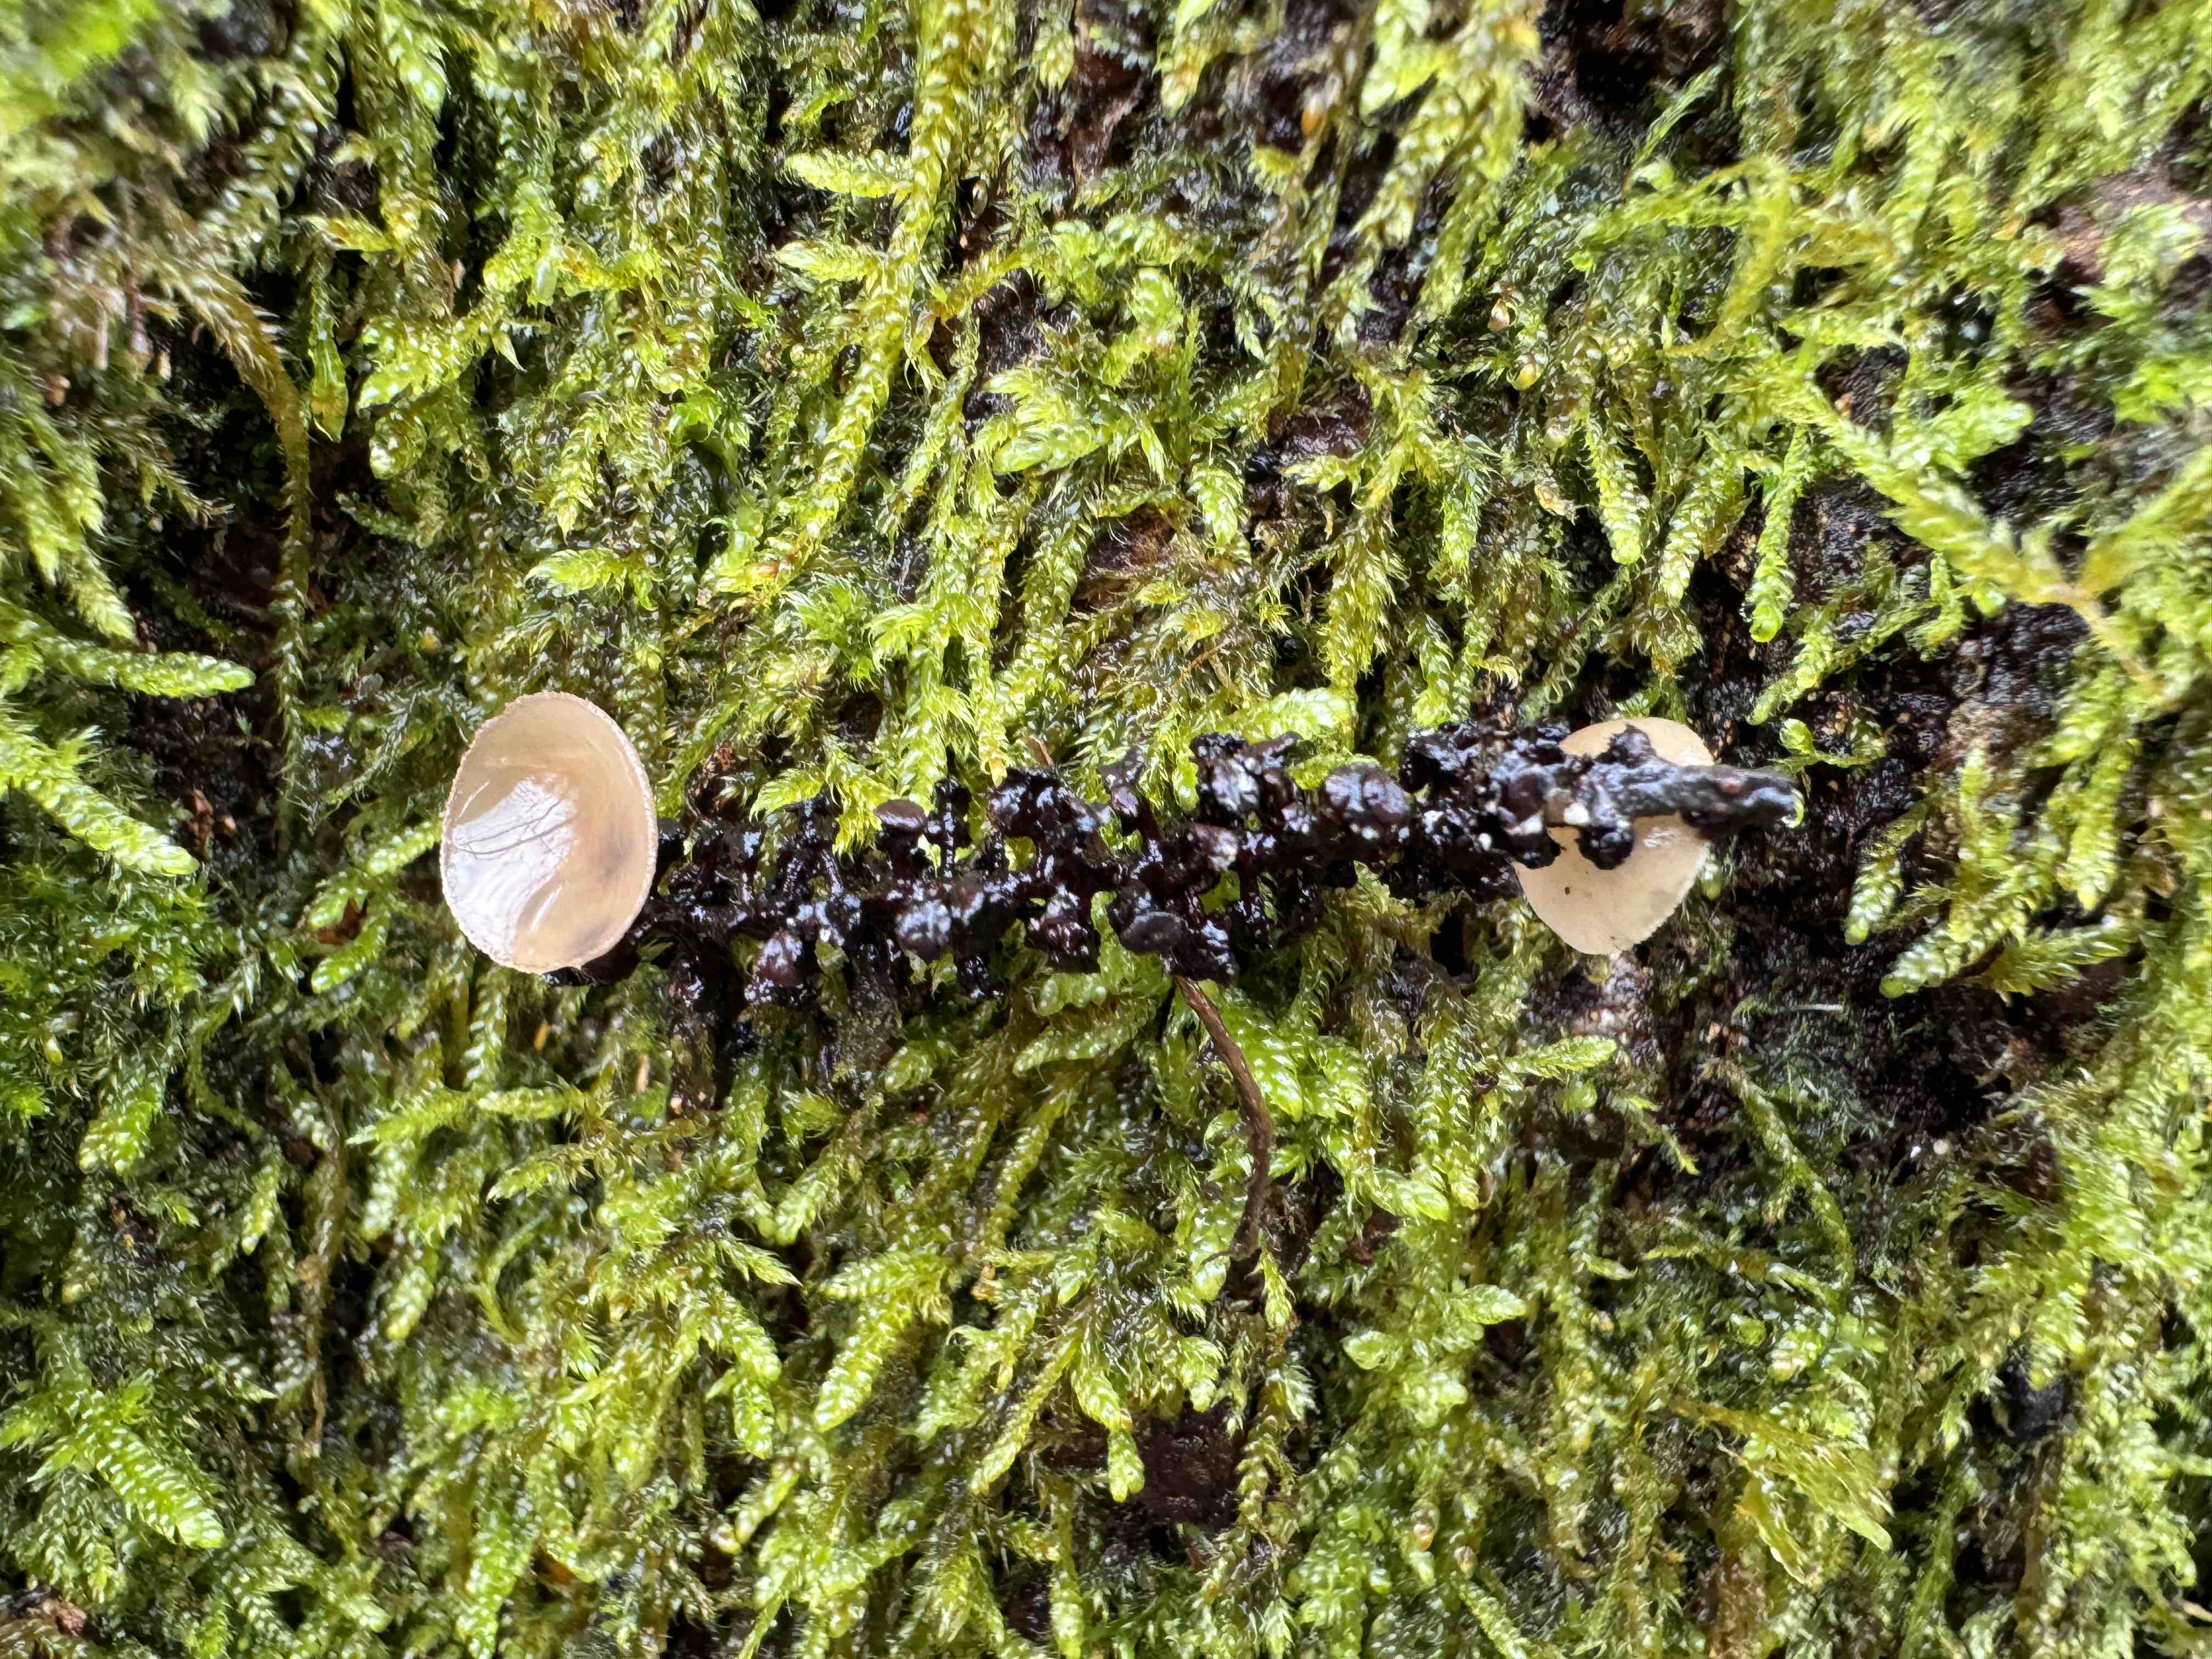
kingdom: Fungi
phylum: Ascomycota
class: Leotiomycetes
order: Helotiales
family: Sclerotiniaceae
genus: Ciboria
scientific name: Ciboria amentacea
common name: ellerakle-knoldskive
